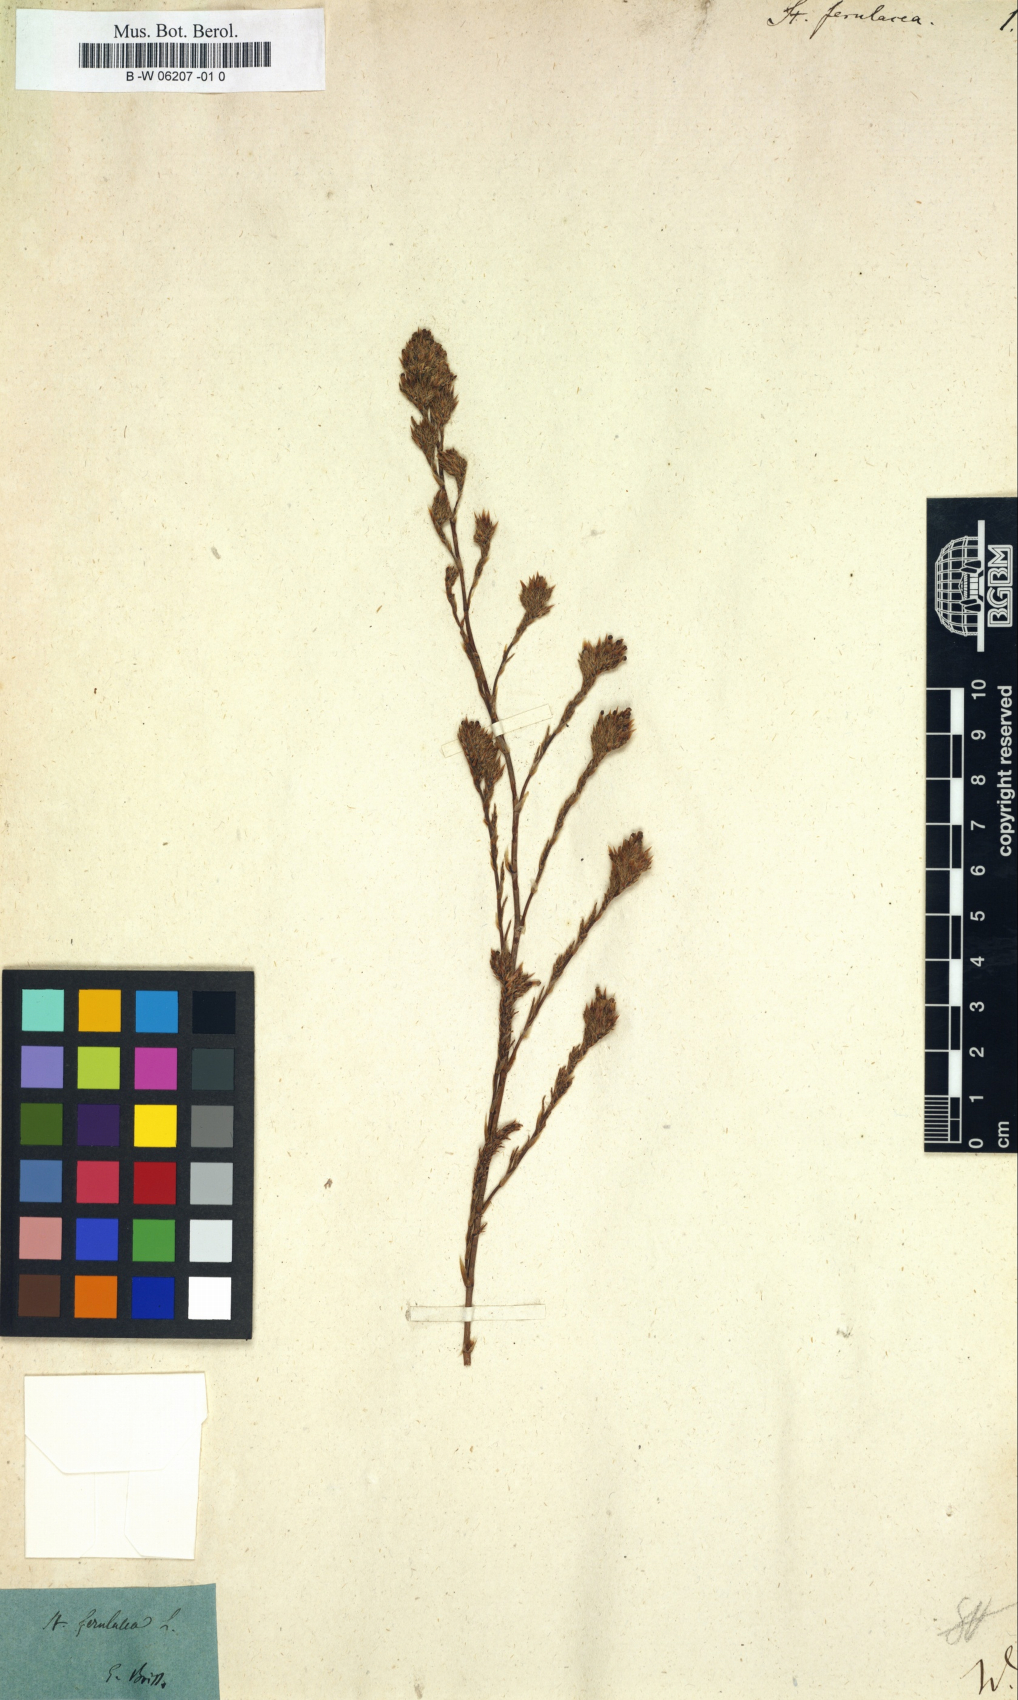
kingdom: Plantae
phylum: Tracheophyta
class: Magnoliopsida
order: Caryophyllales
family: Plumbaginaceae
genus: Myriolimon
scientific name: Myriolimon ferulaceum
